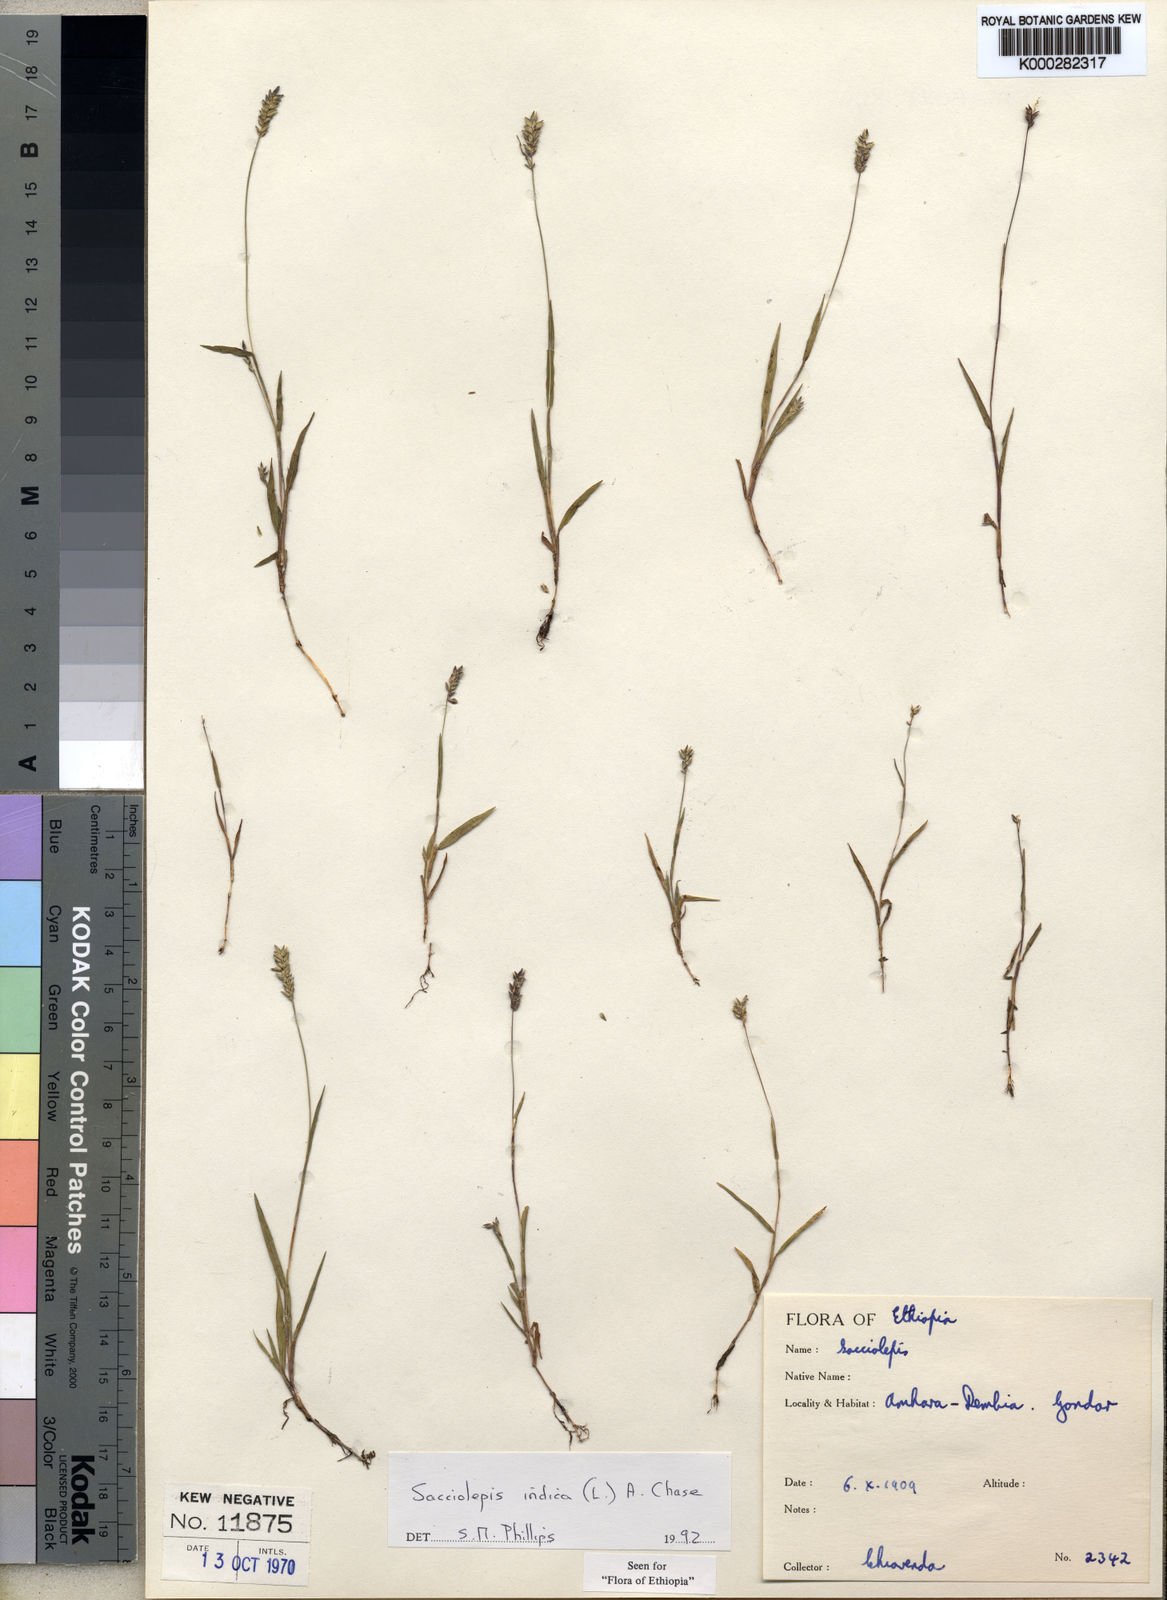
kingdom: Plantae
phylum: Tracheophyta
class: Liliopsida
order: Poales
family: Poaceae
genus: Sacciolepis
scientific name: Sacciolepis indica
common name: Glenwoodgrass
